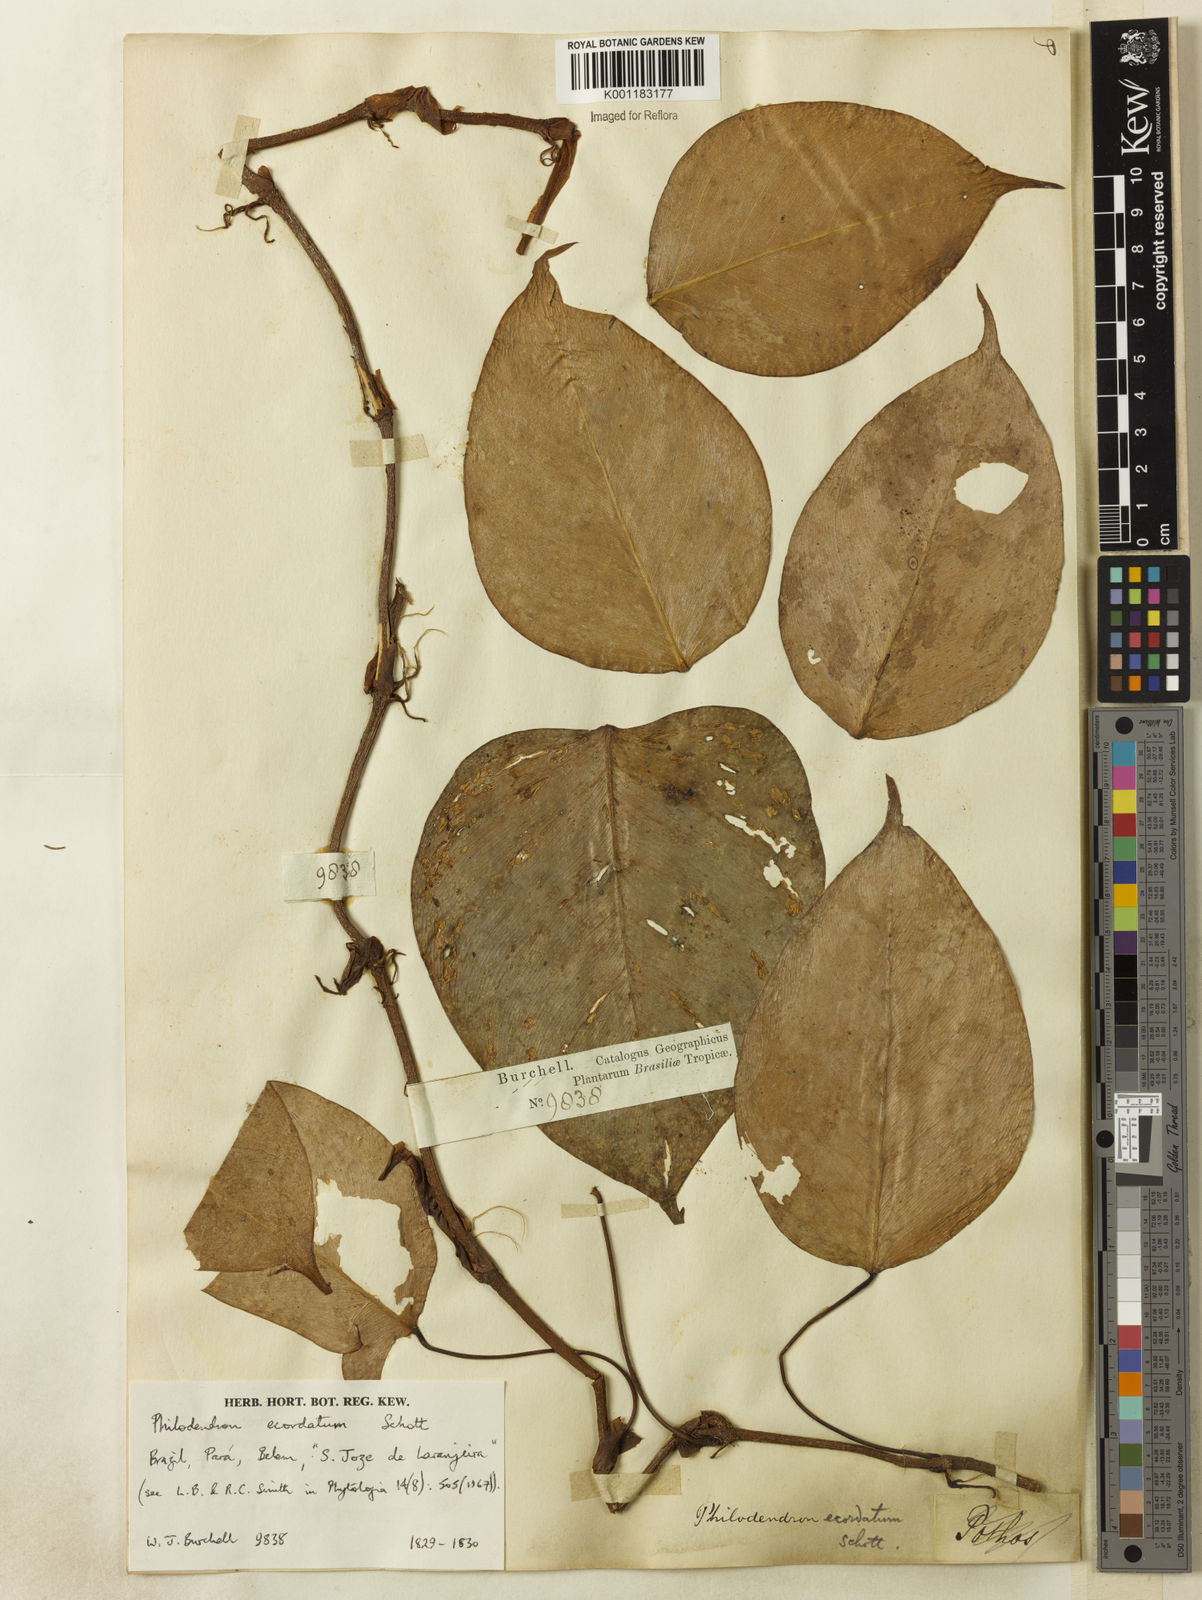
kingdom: Plantae
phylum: Tracheophyta
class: Liliopsida
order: Alismatales
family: Araceae
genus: Philodendron
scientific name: Philodendron ecordatum
